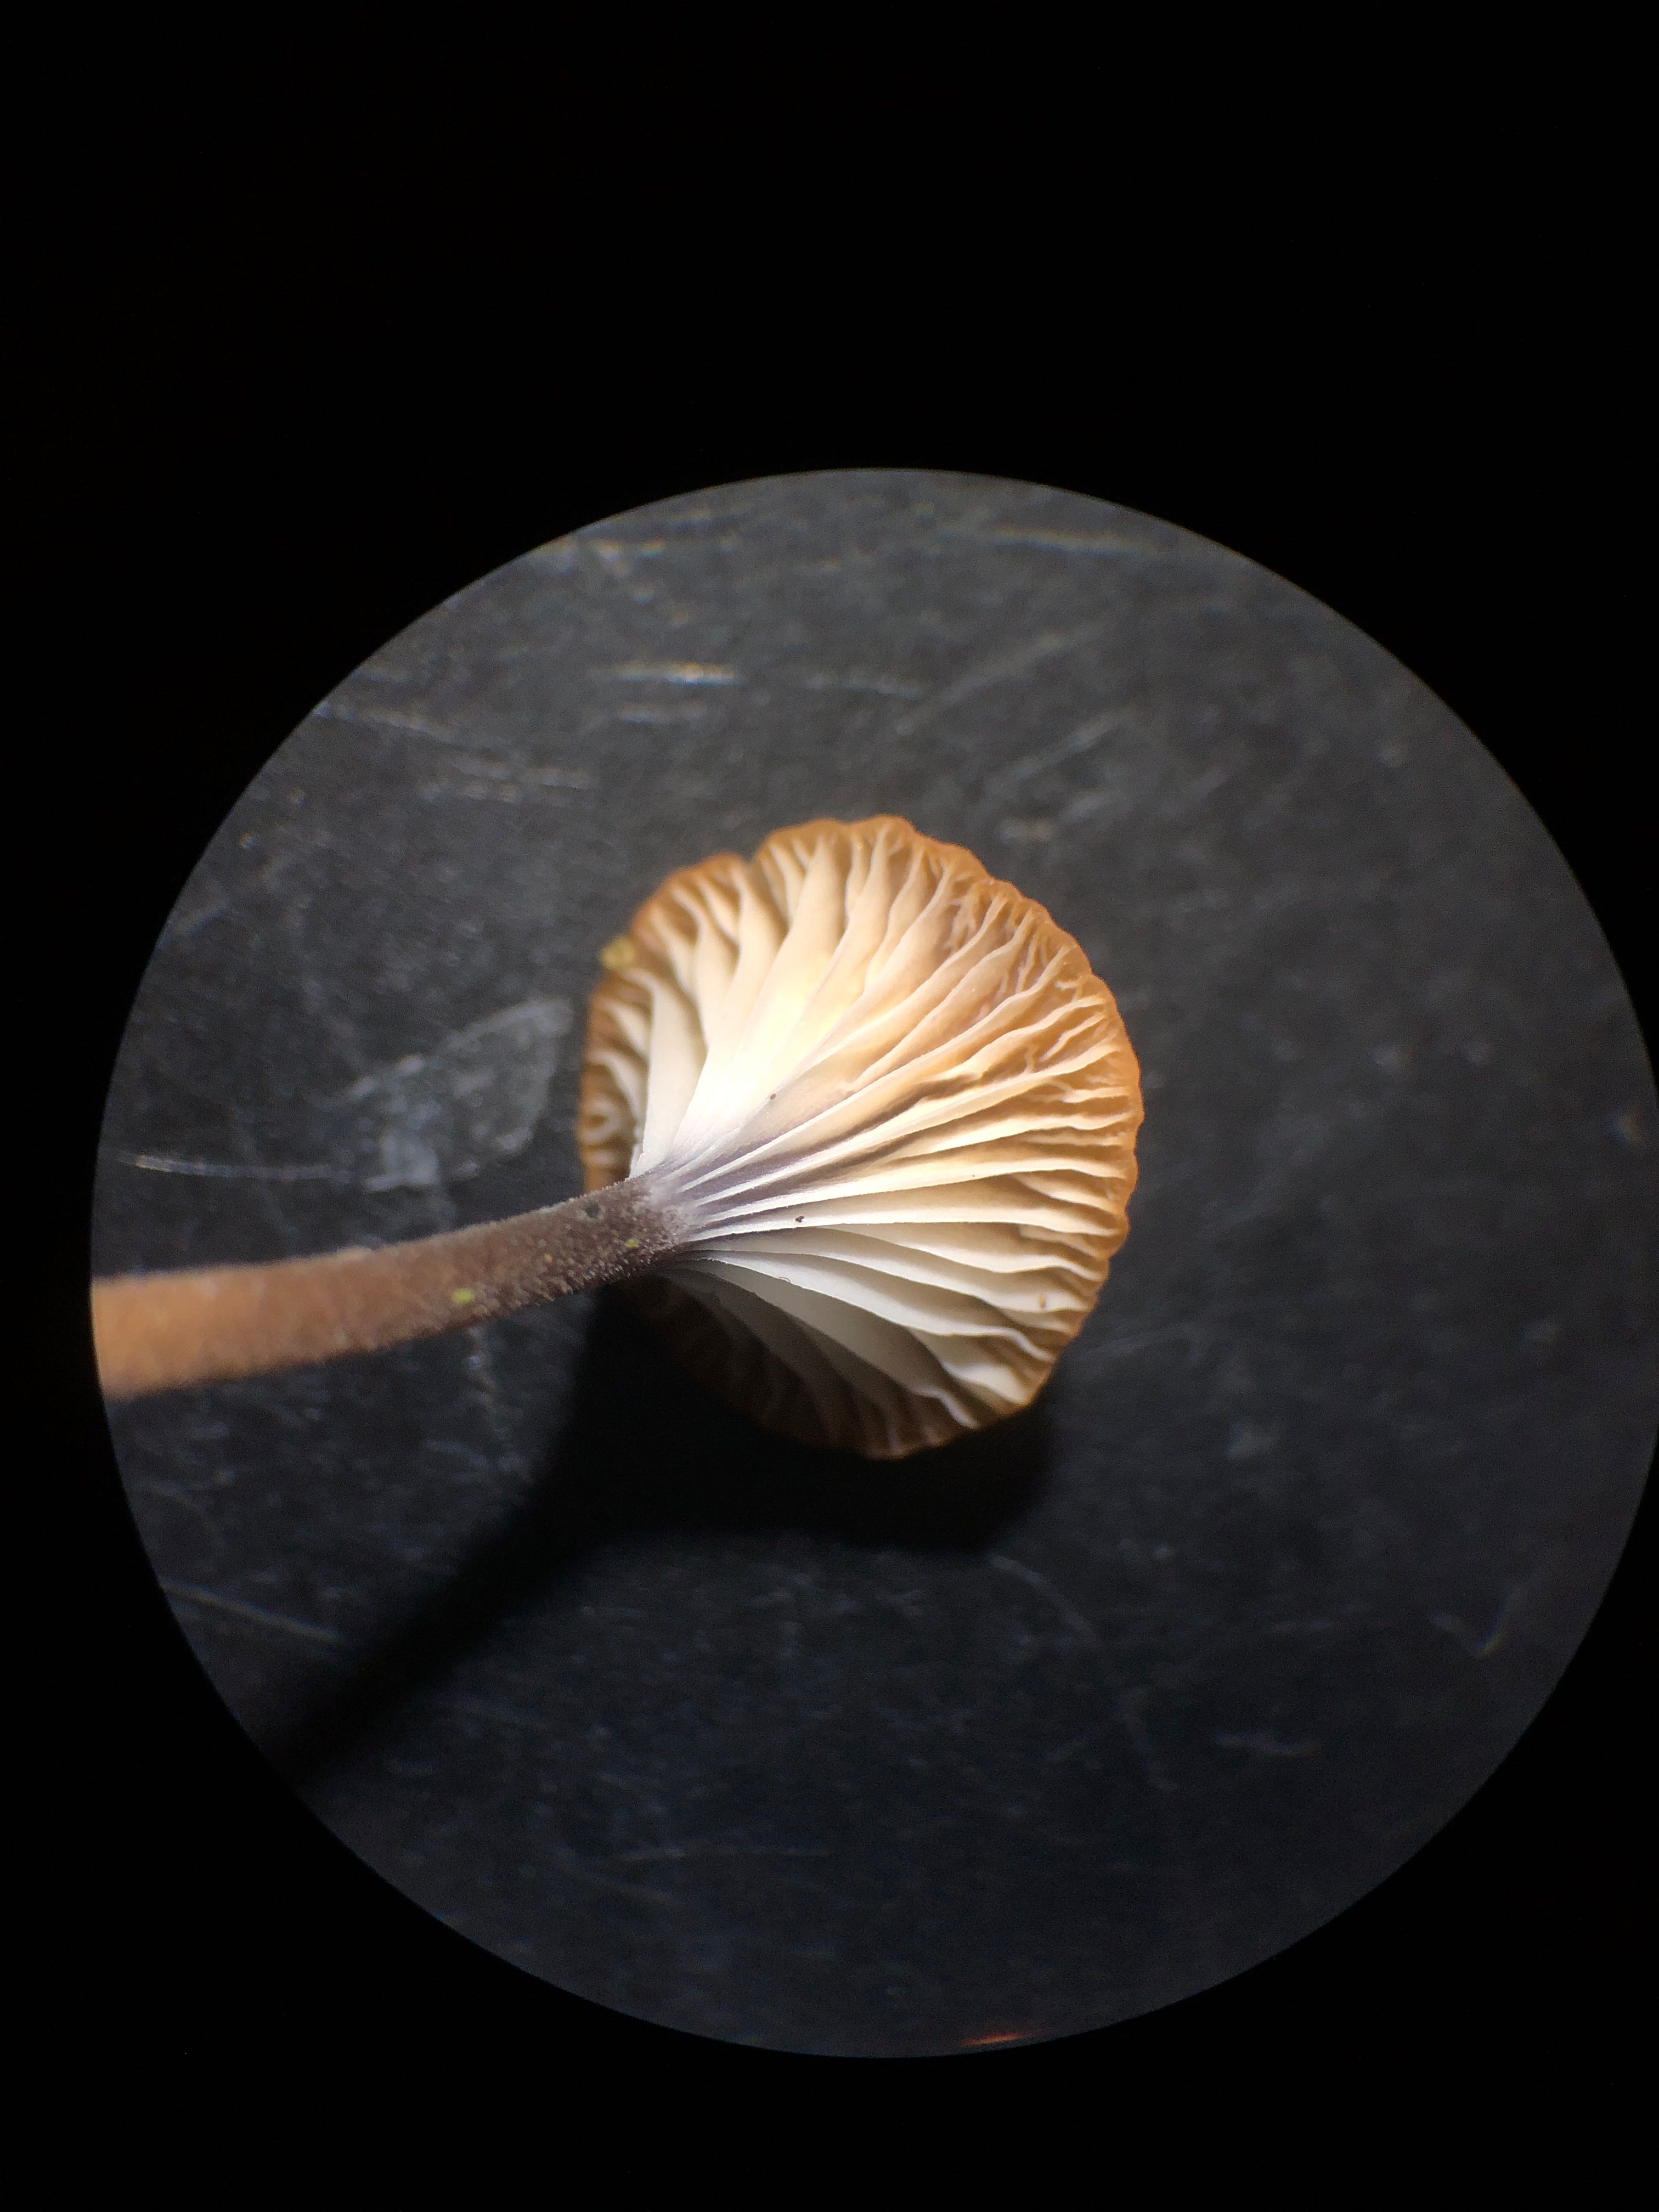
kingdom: Fungi
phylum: Basidiomycota
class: Agaricomycetes
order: Hymenochaetales
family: Rickenellaceae
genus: Rickenella
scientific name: Rickenella swartzii
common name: finstokket mosnavlehat
